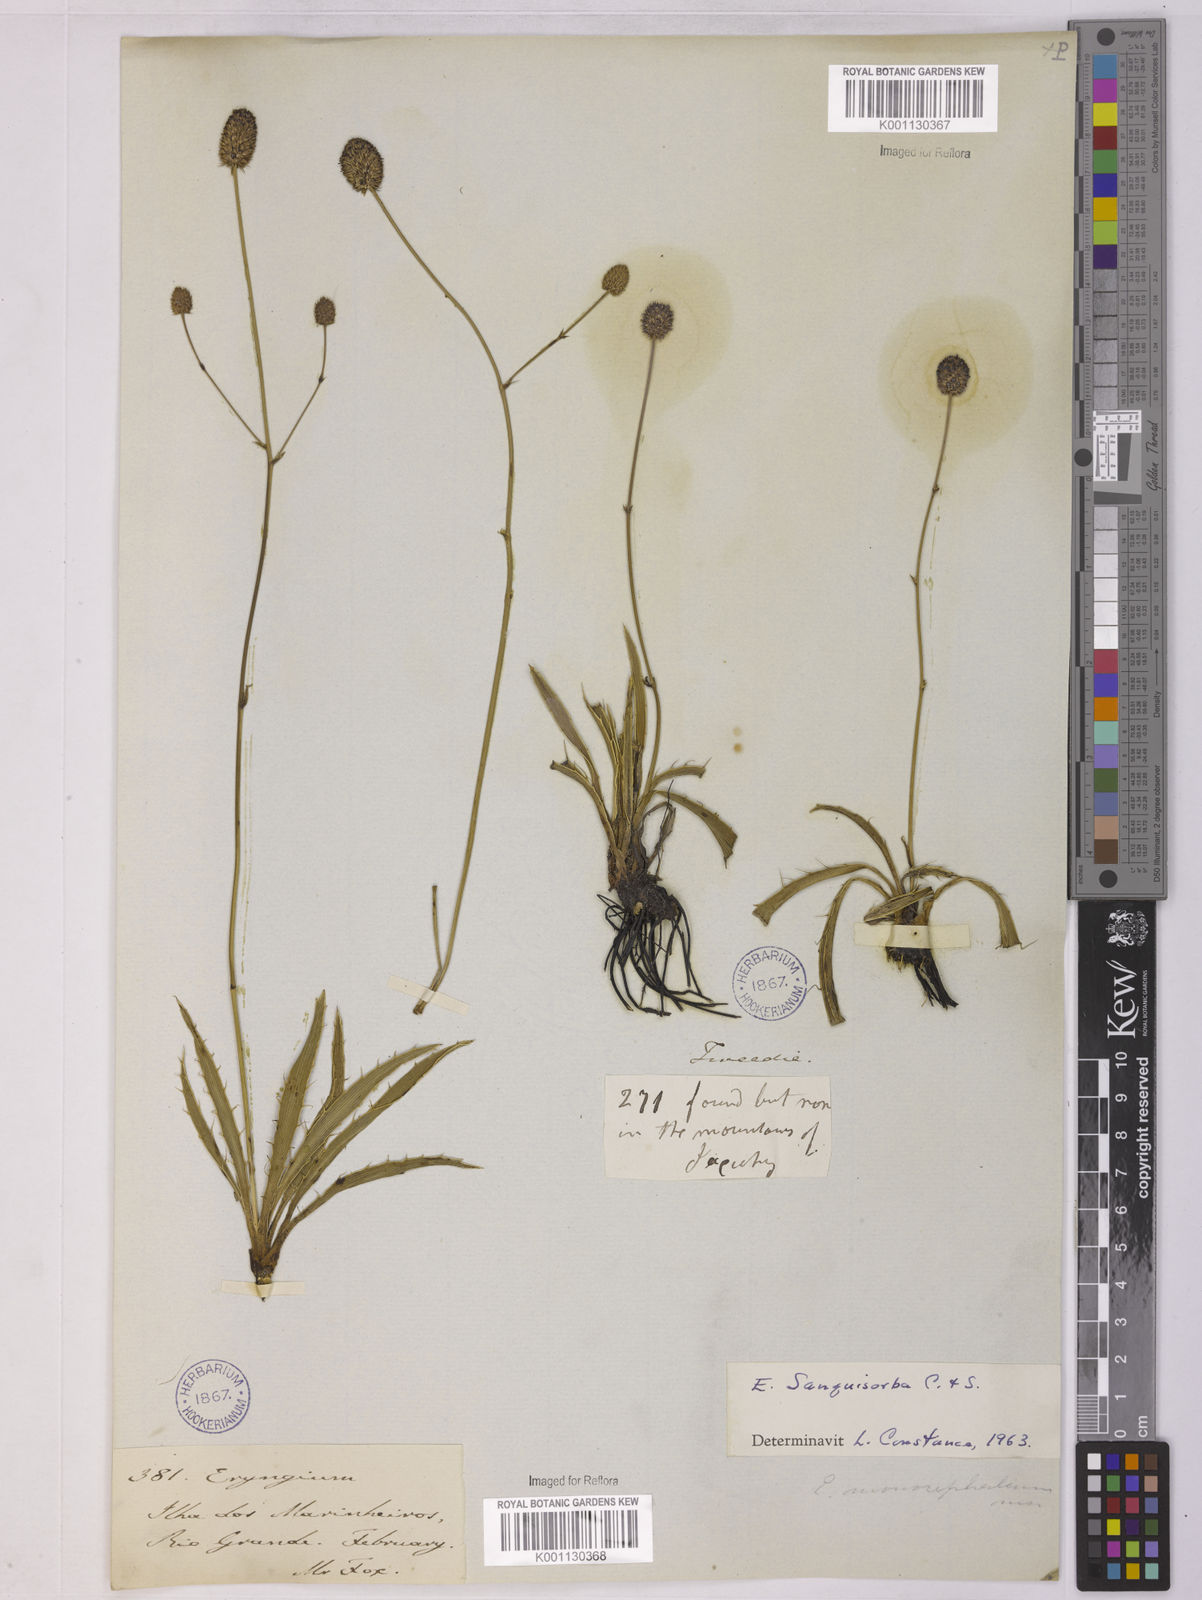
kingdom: Plantae
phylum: Tracheophyta
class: Magnoliopsida
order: Apiales
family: Apiaceae
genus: Eryngium
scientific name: Eryngium sanguisorba
